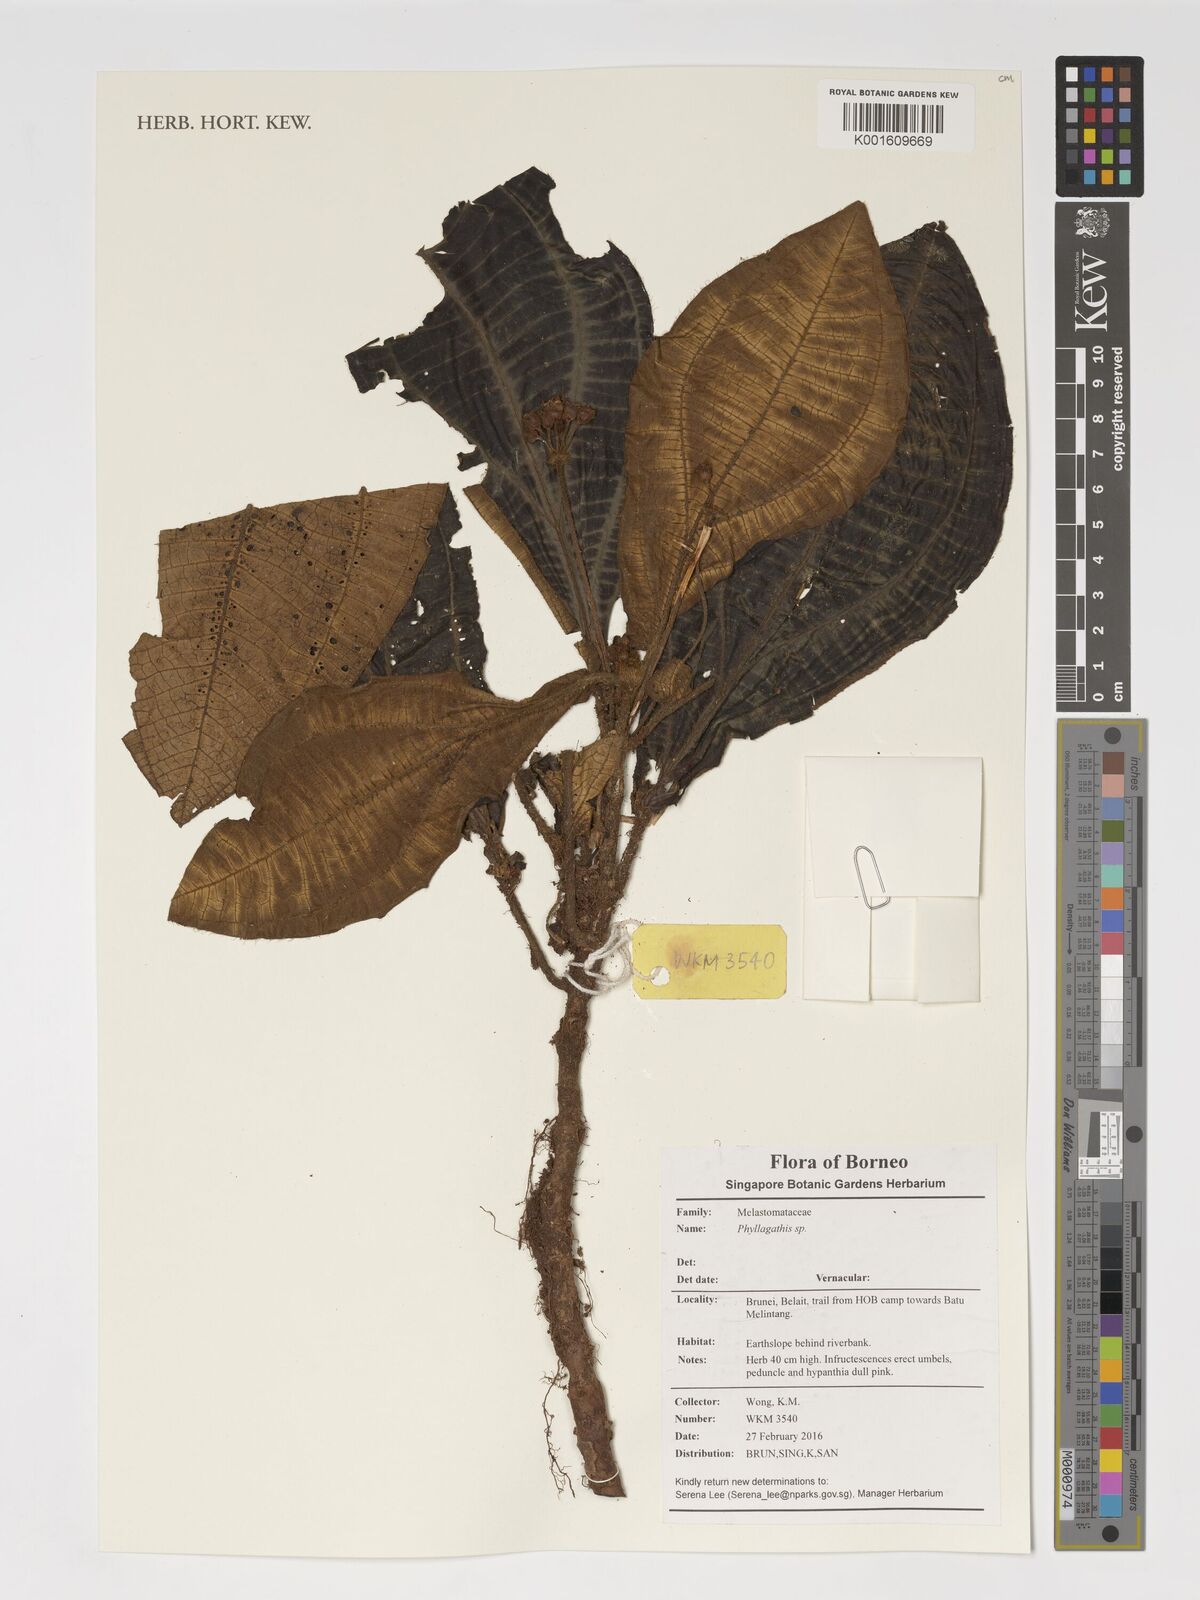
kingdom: Plantae
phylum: Tracheophyta
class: Magnoliopsida
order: Myrtales
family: Melastomataceae
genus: Phyllagathis
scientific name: Phyllagathis
